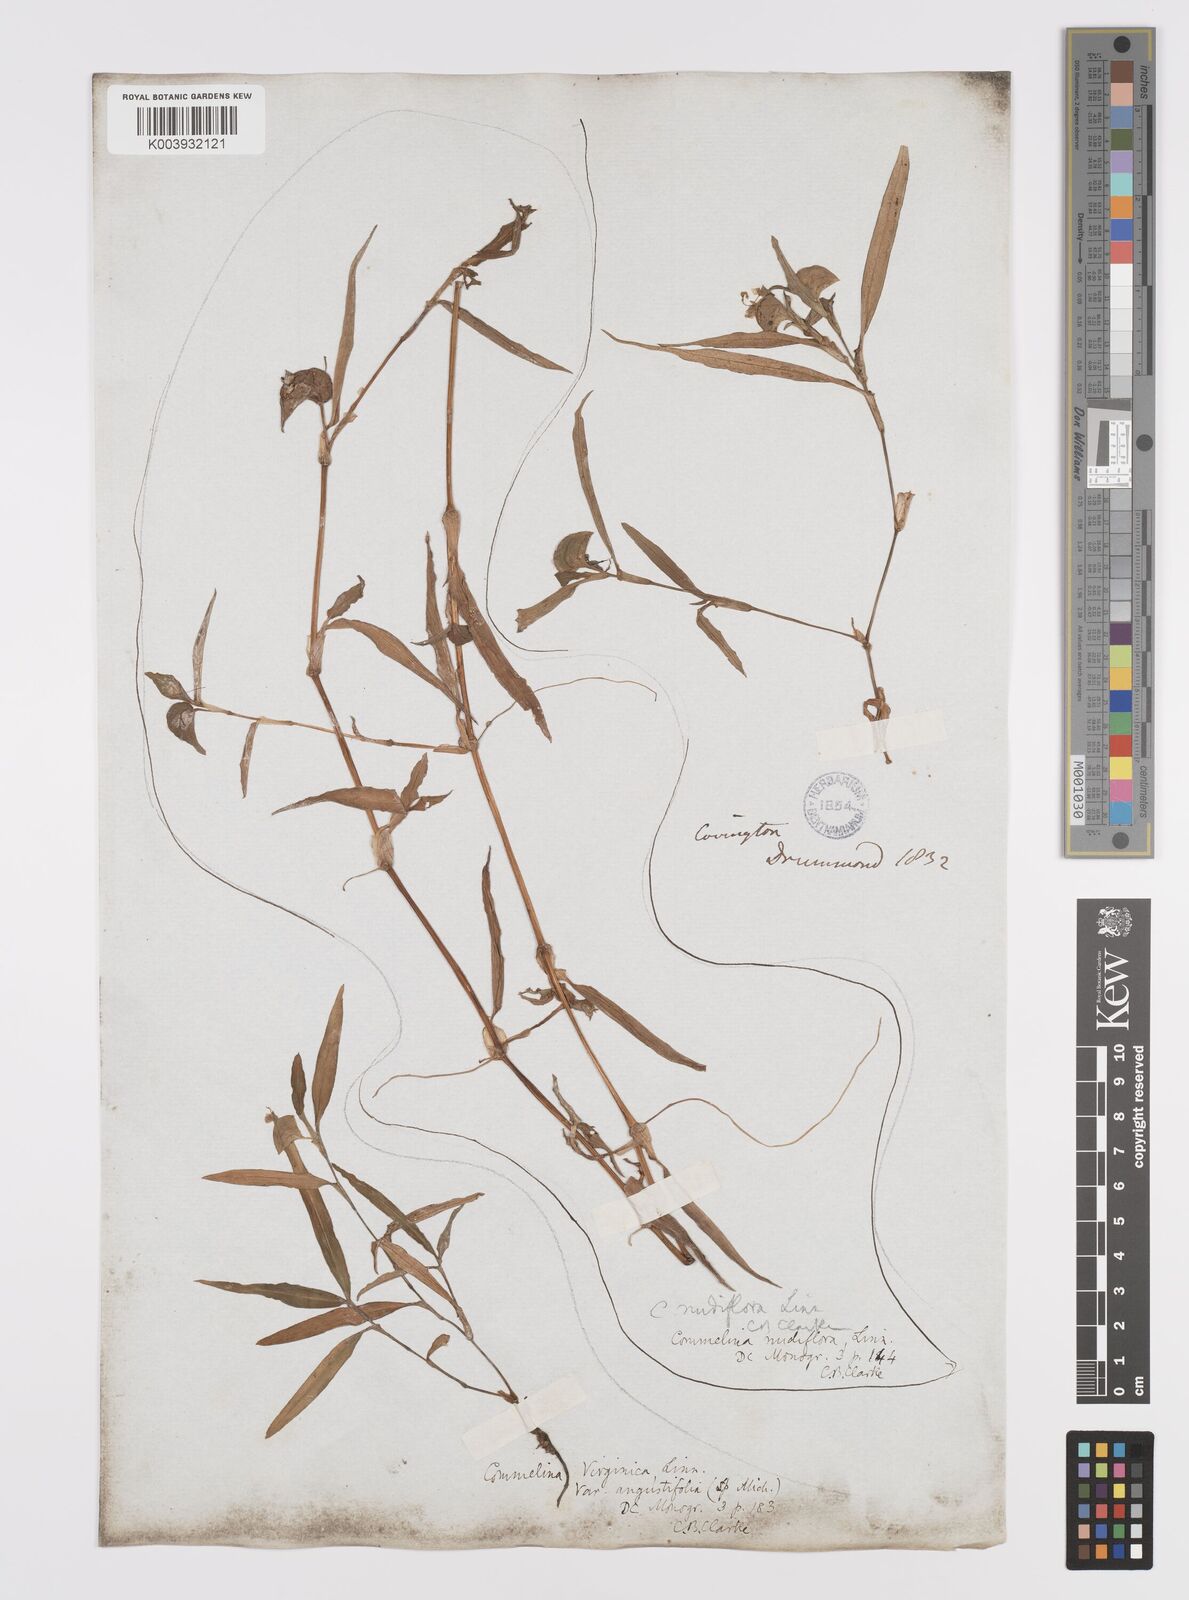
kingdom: Plantae
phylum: Tracheophyta
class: Liliopsida
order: Commelinales
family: Commelinaceae
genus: Commelina
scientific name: Commelina erecta
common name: Blousel blommetjie
